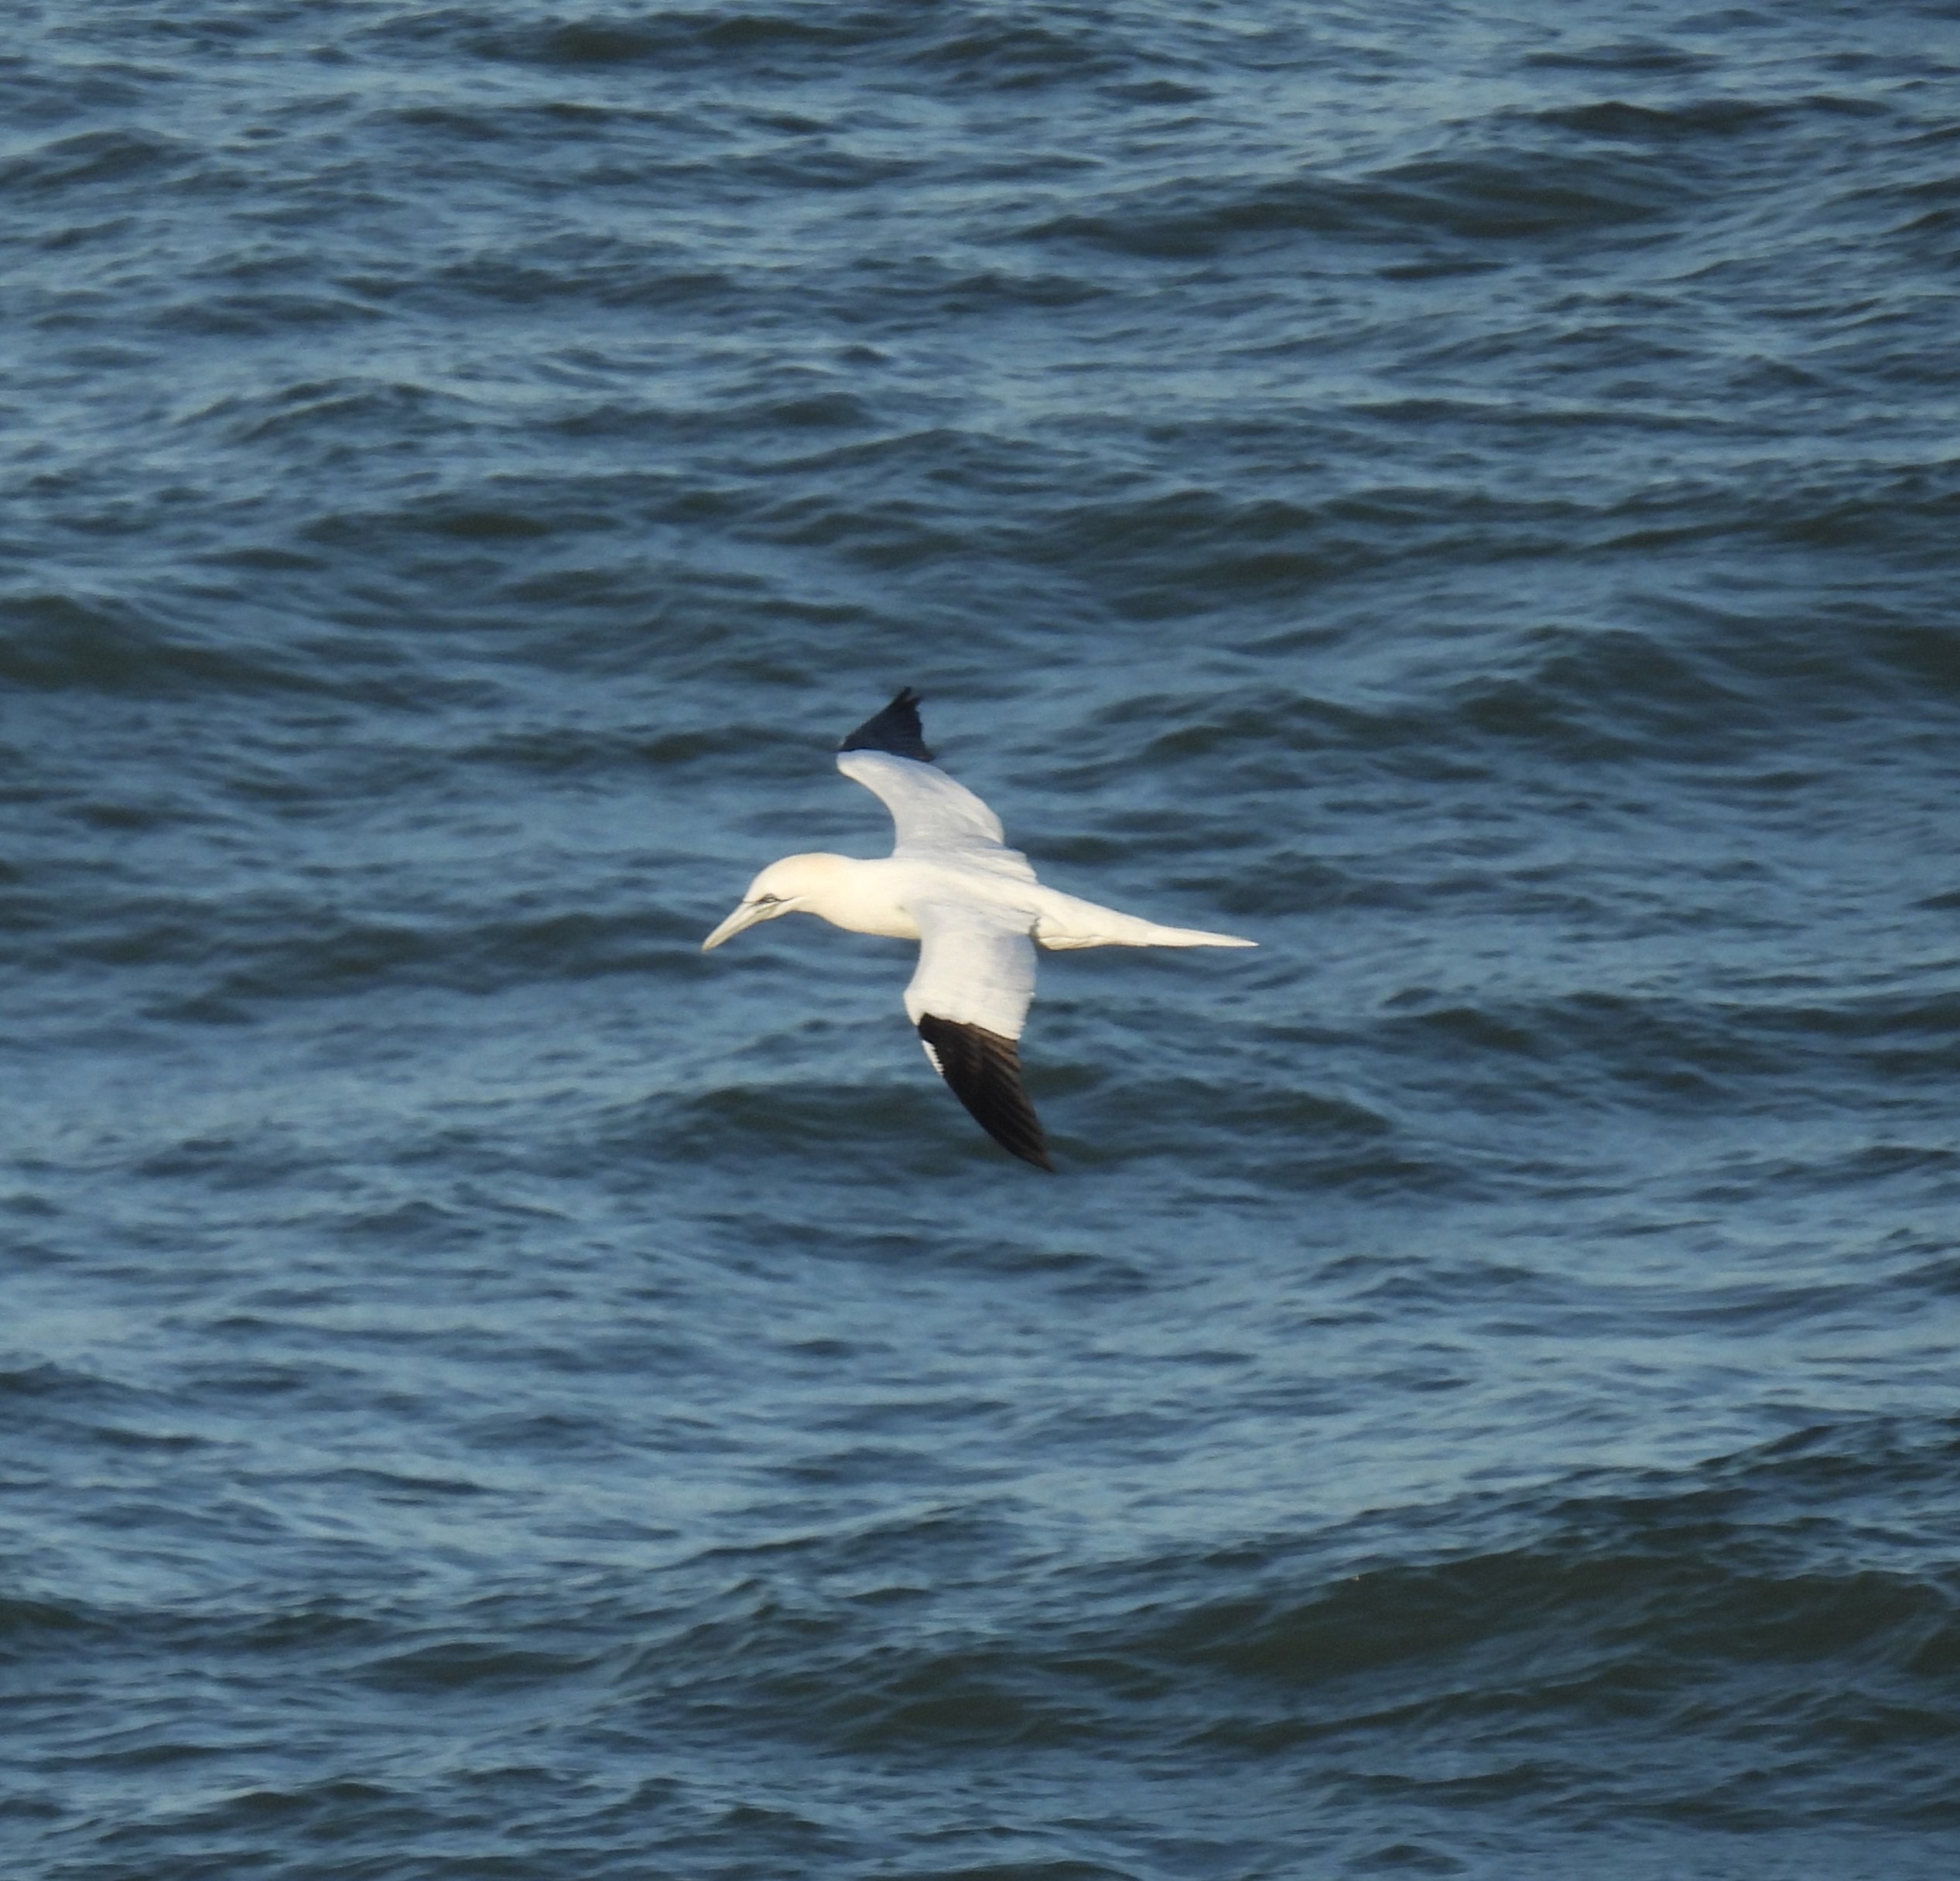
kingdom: Animalia
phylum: Chordata
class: Aves
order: Suliformes
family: Sulidae
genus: Morus
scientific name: Morus bassanus
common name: Sule
